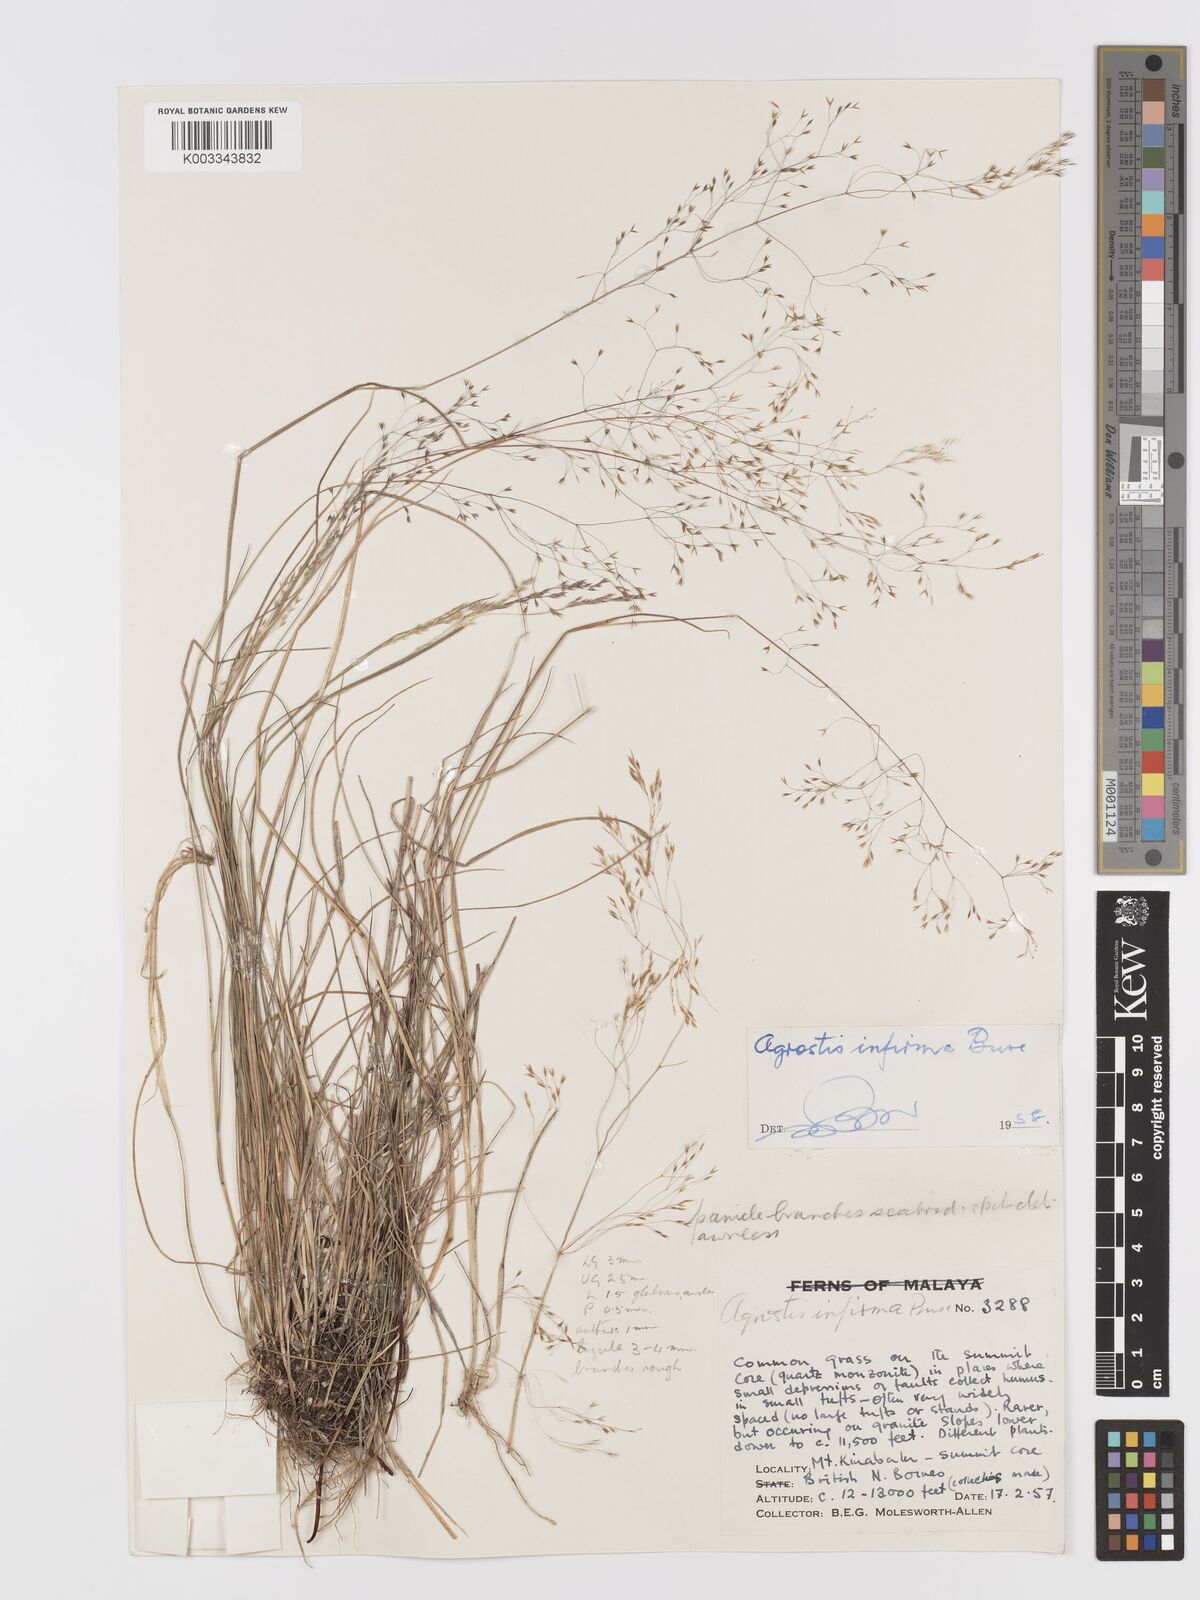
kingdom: Plantae
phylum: Tracheophyta
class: Liliopsida
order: Poales
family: Poaceae
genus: Agrostis
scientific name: Agrostis infirma
